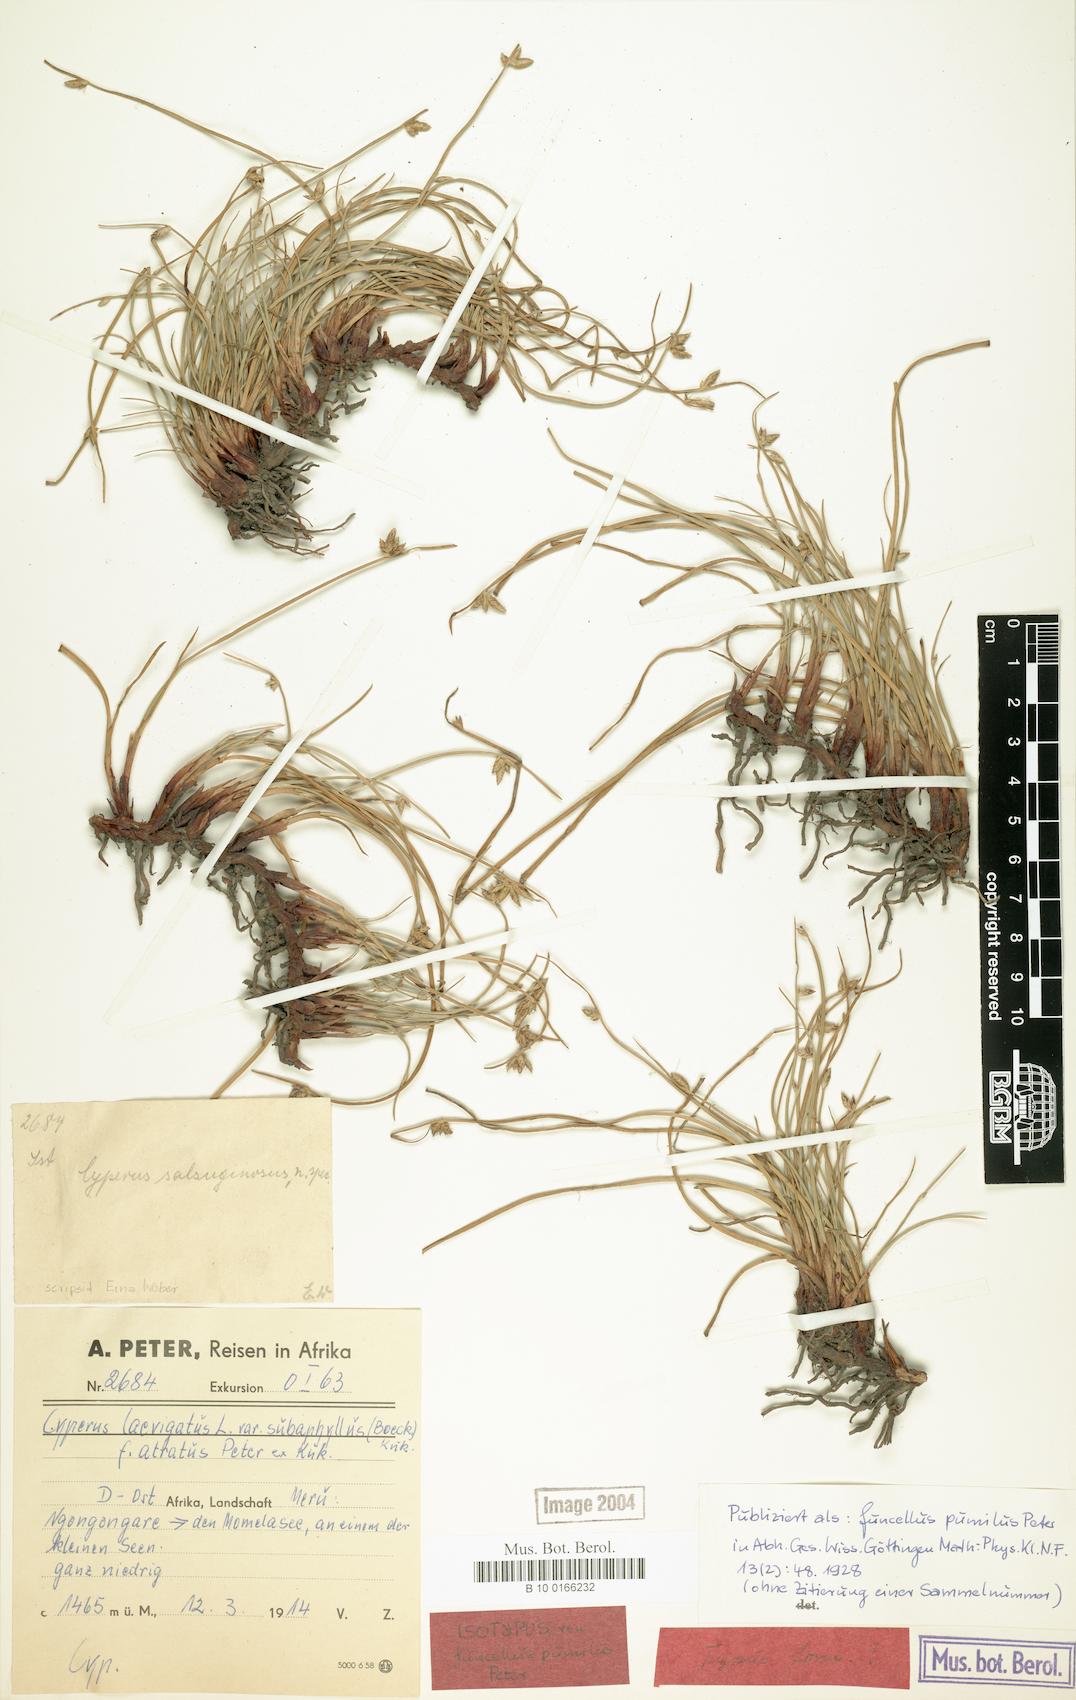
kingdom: Plantae
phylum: Tracheophyta
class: Liliopsida
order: Poales
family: Cyperaceae
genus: Cyperus
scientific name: Cyperus laevigatus
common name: Smooth flat sedge
